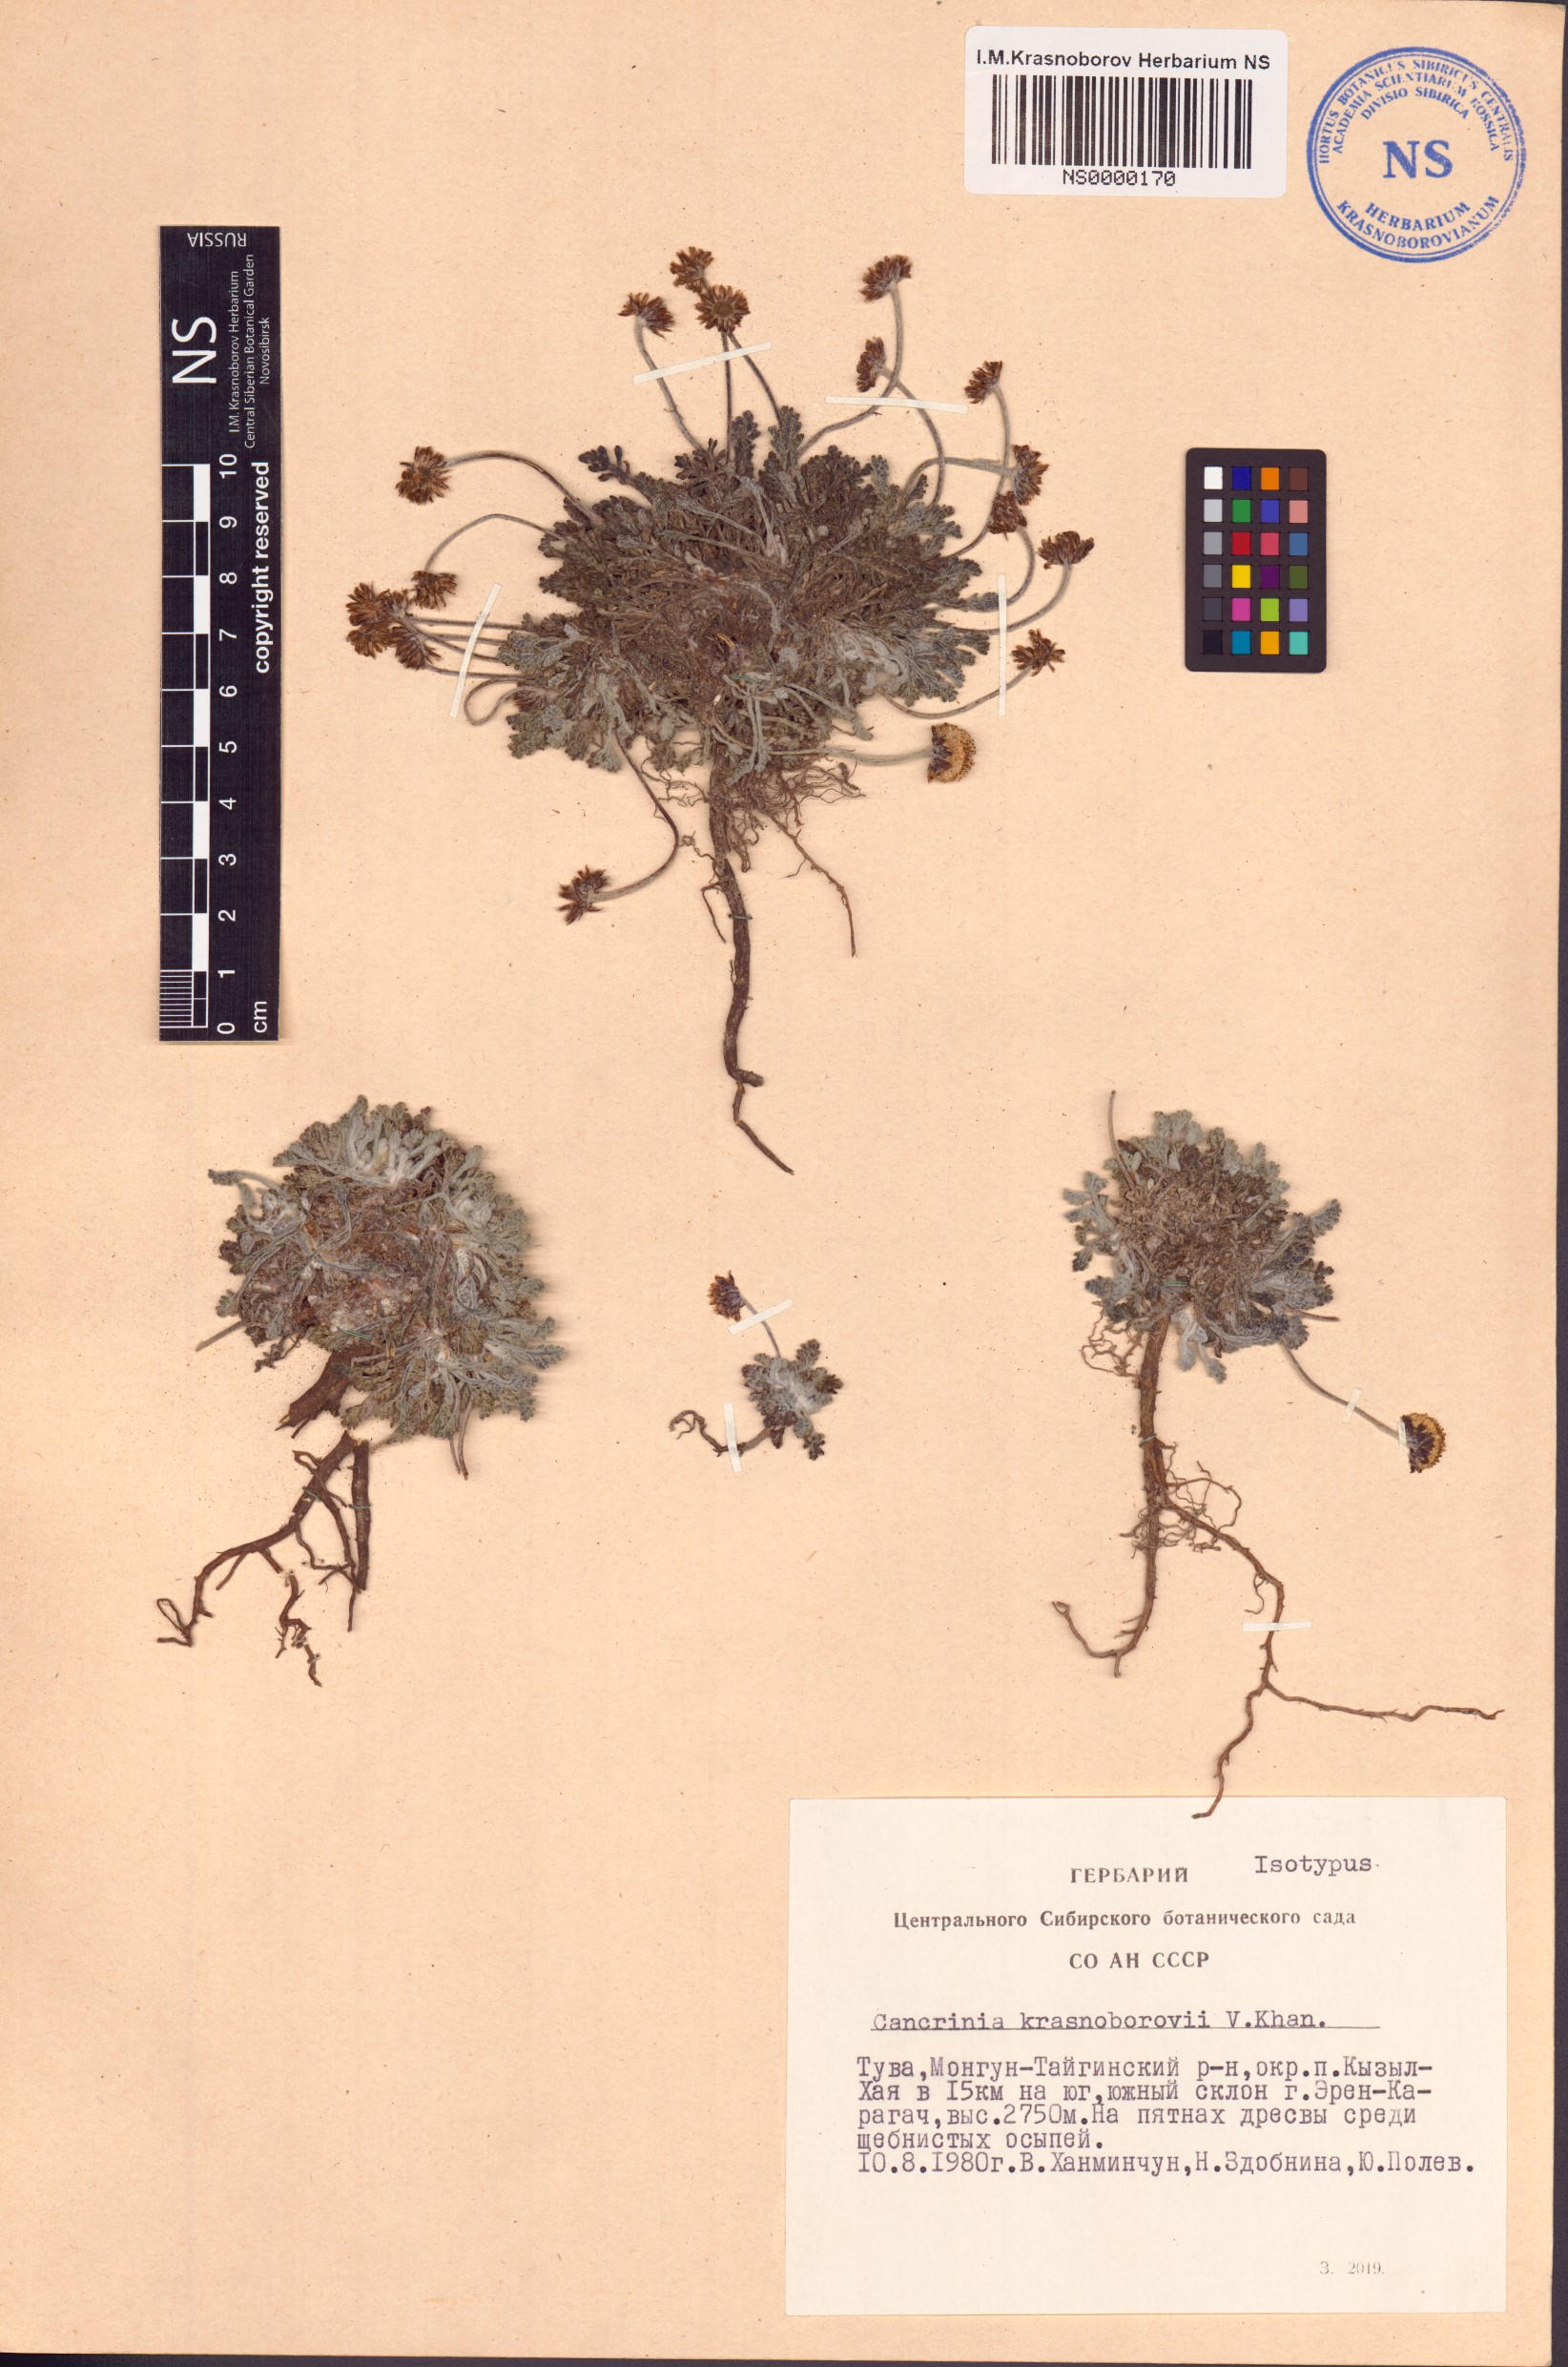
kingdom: Plantae
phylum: Tracheophyta
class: Magnoliopsida
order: Asterales
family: Asteraceae
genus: Cancrinia
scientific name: Cancrinia krasnoborovii
